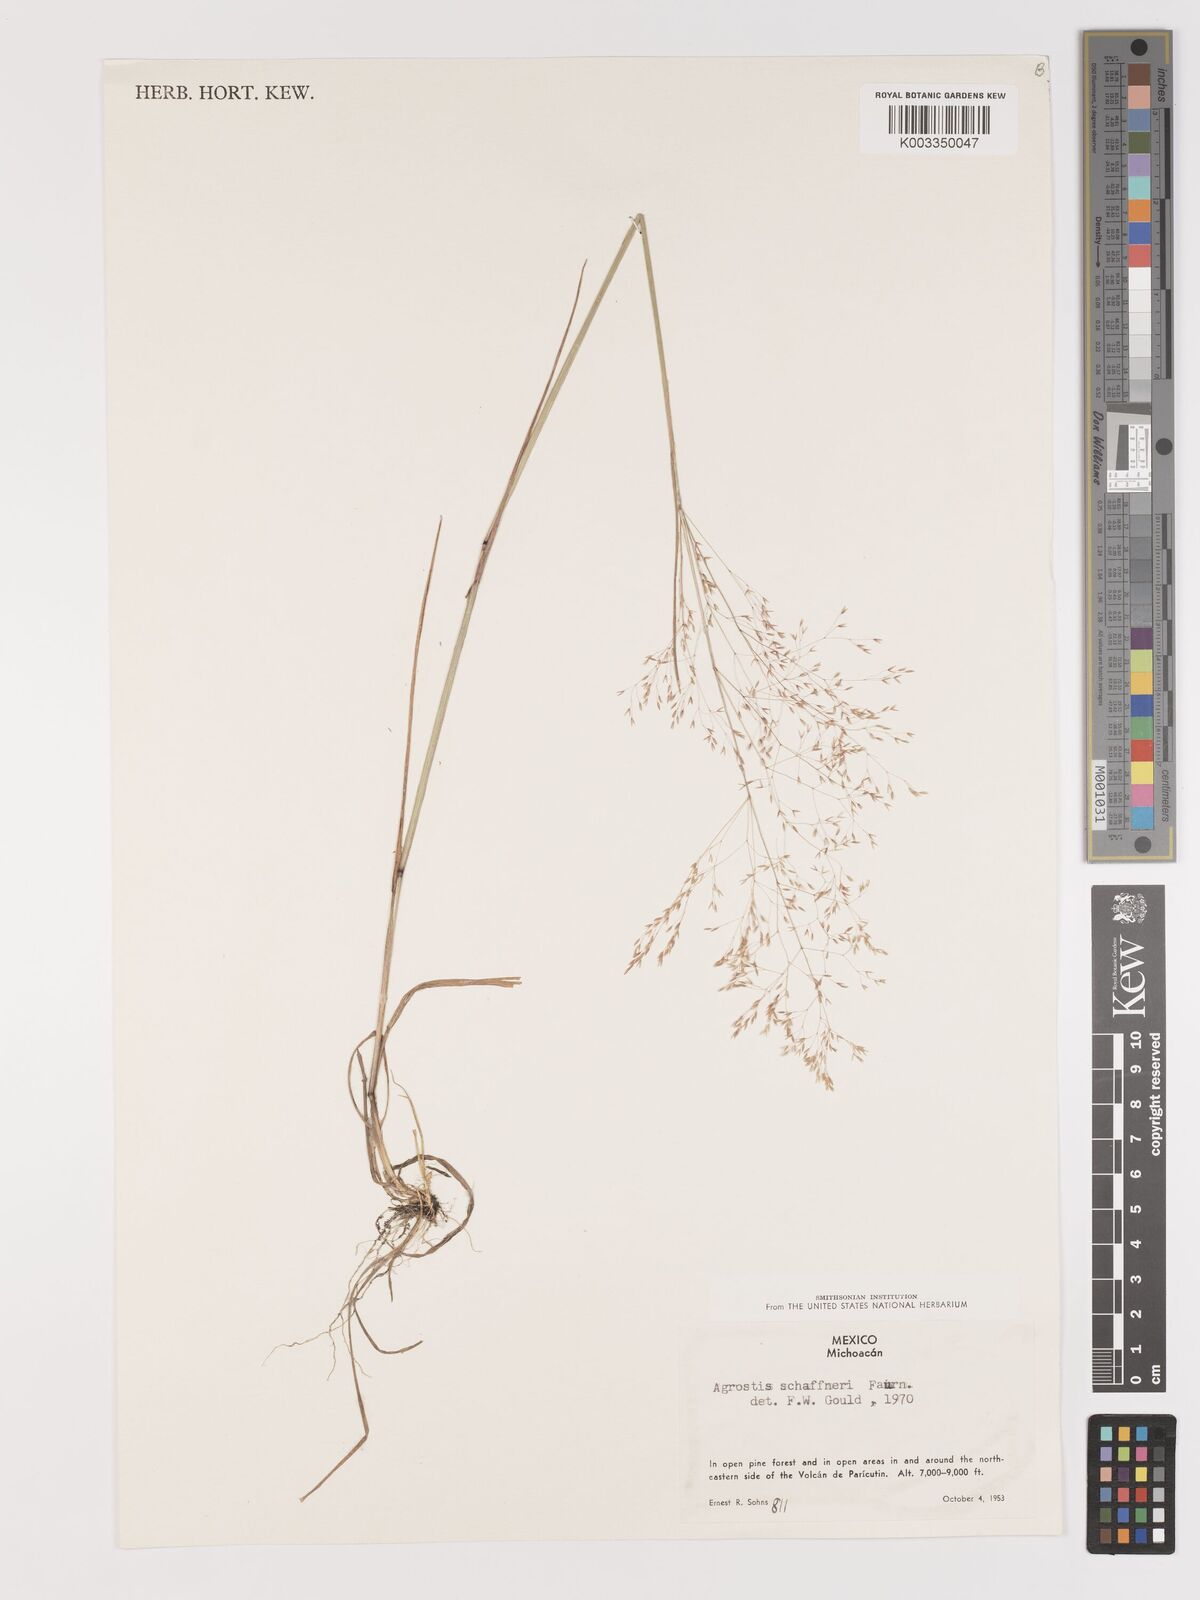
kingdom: Plantae
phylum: Tracheophyta
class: Liliopsida
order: Poales
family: Poaceae
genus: Agrostis
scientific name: Agrostis schaffneri
